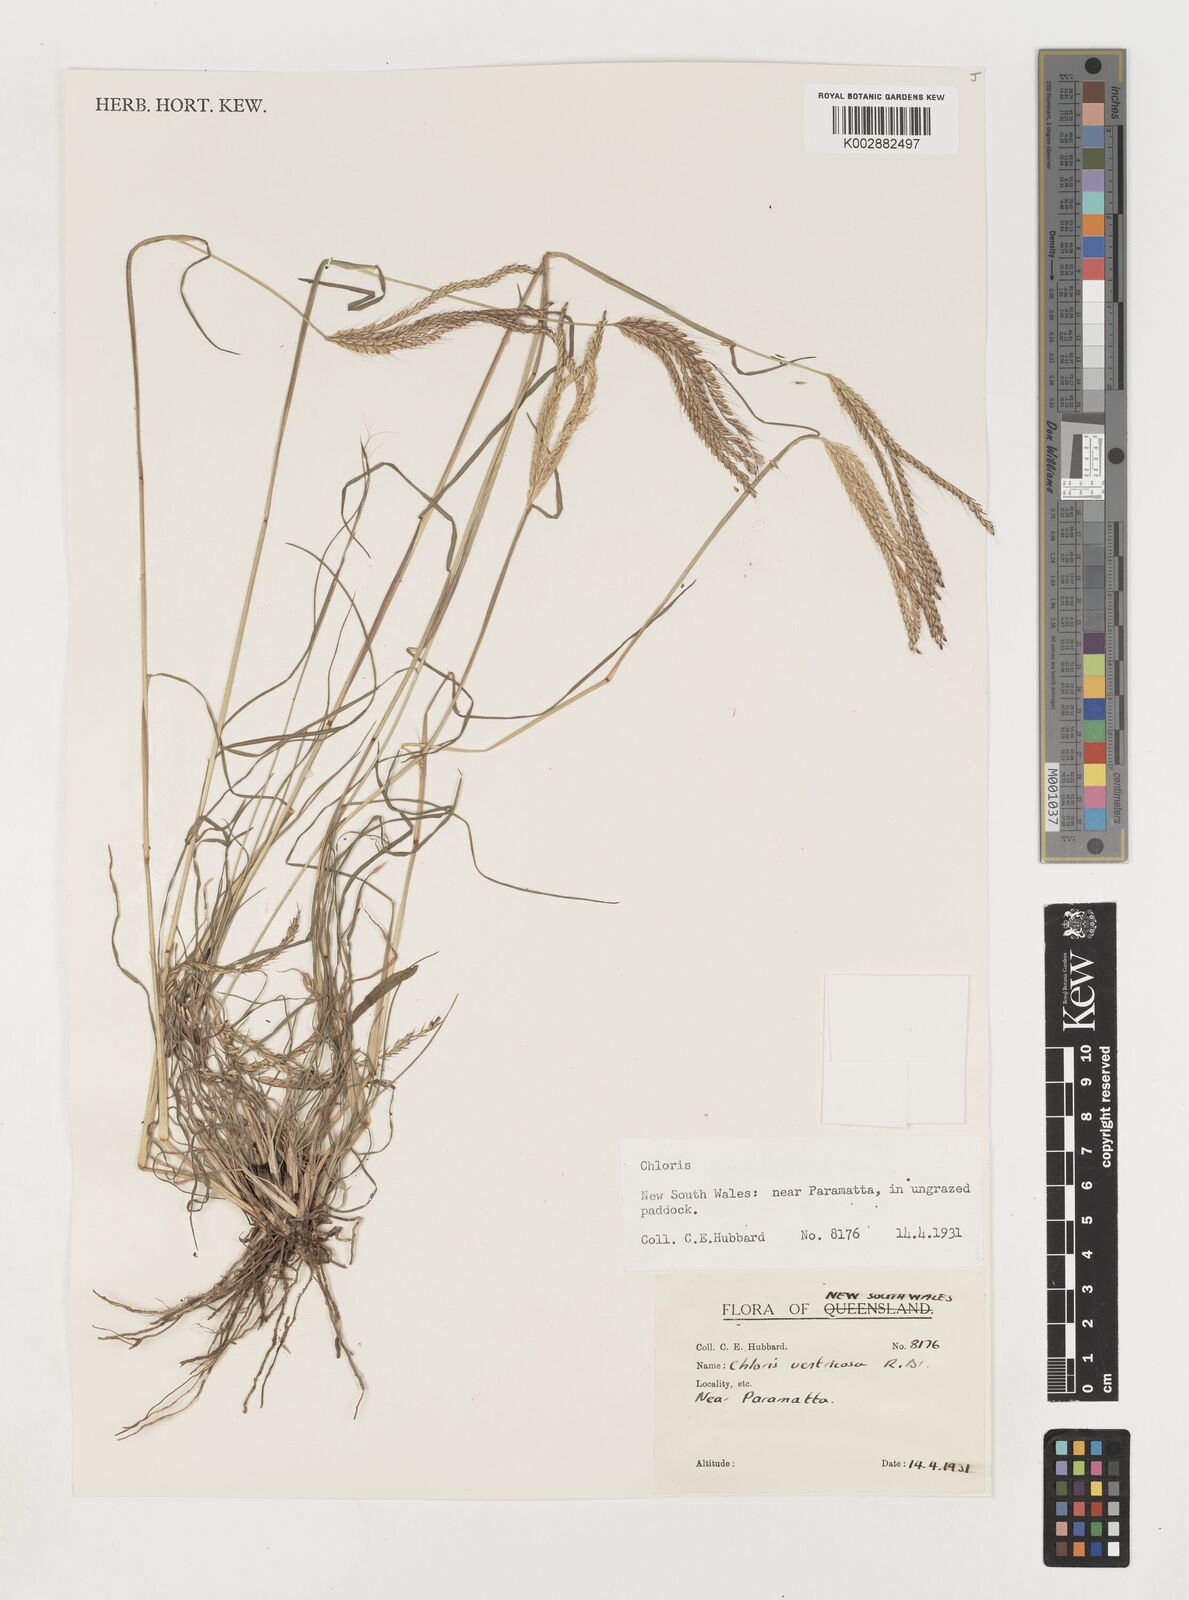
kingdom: Plantae
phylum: Tracheophyta
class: Liliopsida
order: Poales
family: Poaceae
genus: Chloris
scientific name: Chloris ventricosa
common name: Australian windmill grass
